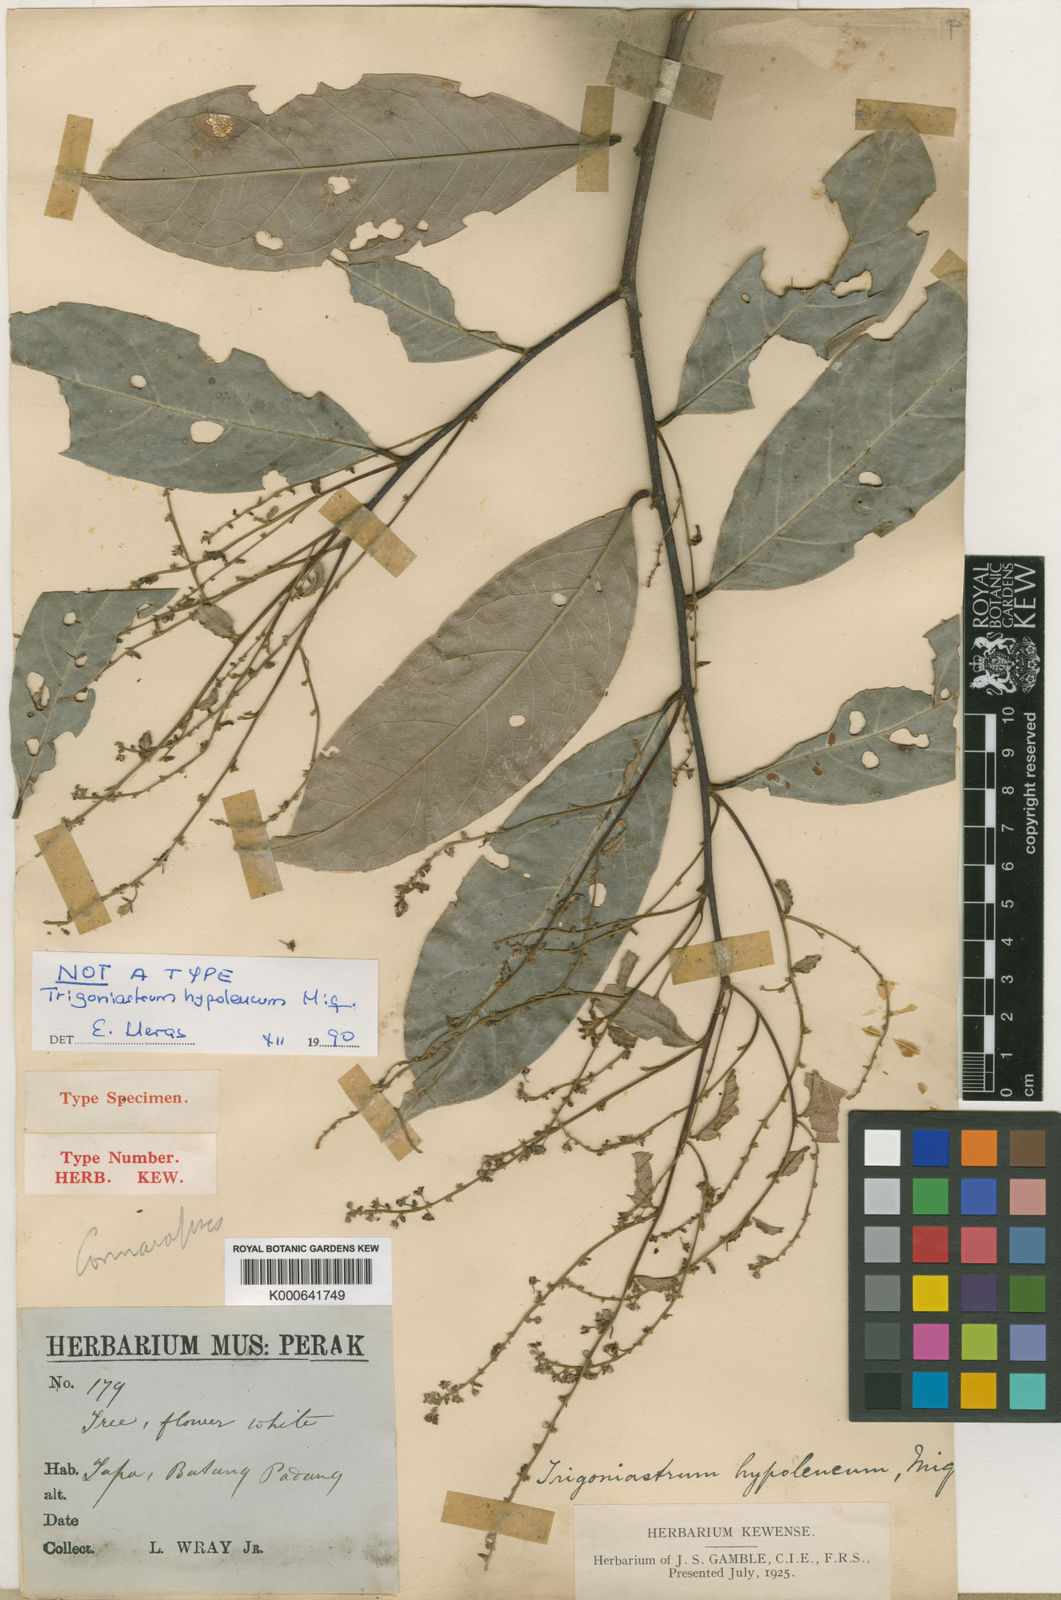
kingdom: Plantae
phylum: Tracheophyta
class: Magnoliopsida
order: Malpighiales
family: Trigoniaceae
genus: Trigoniastrum
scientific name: Trigoniastrum hypoleucum
